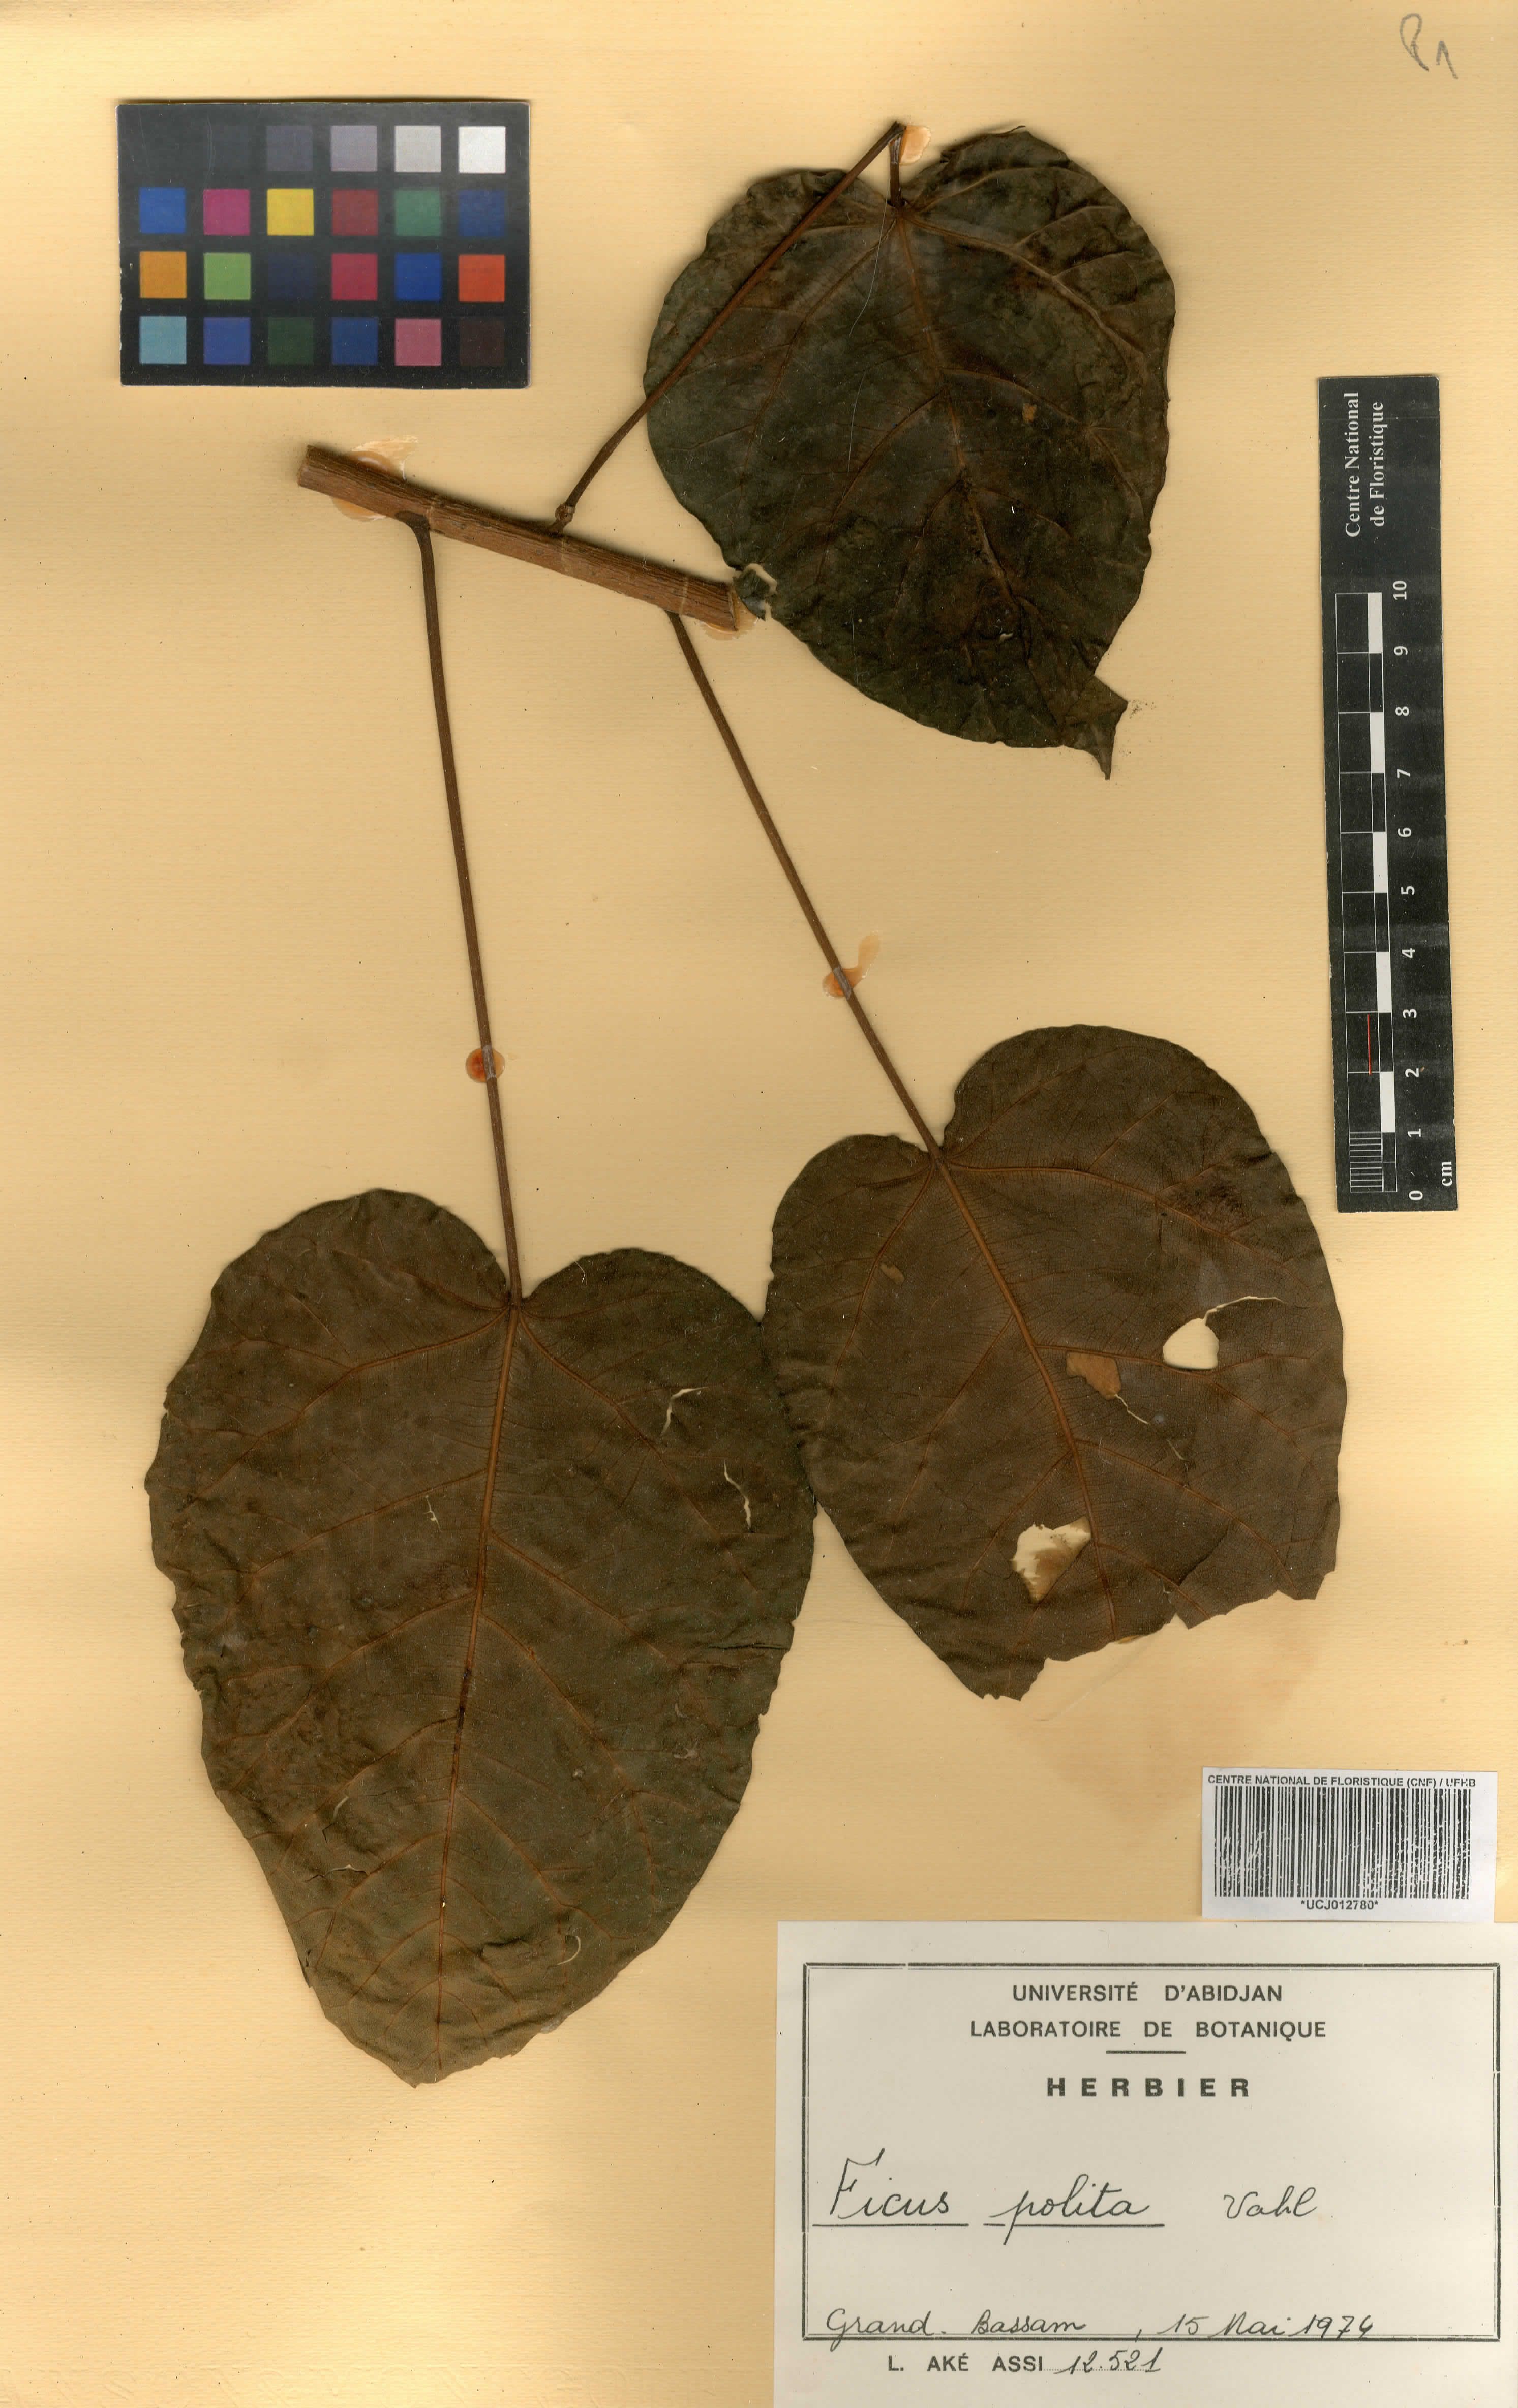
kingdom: Plantae
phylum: Tracheophyta
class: Magnoliopsida
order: Rosales
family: Moraceae
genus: Ficus
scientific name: Ficus polita
